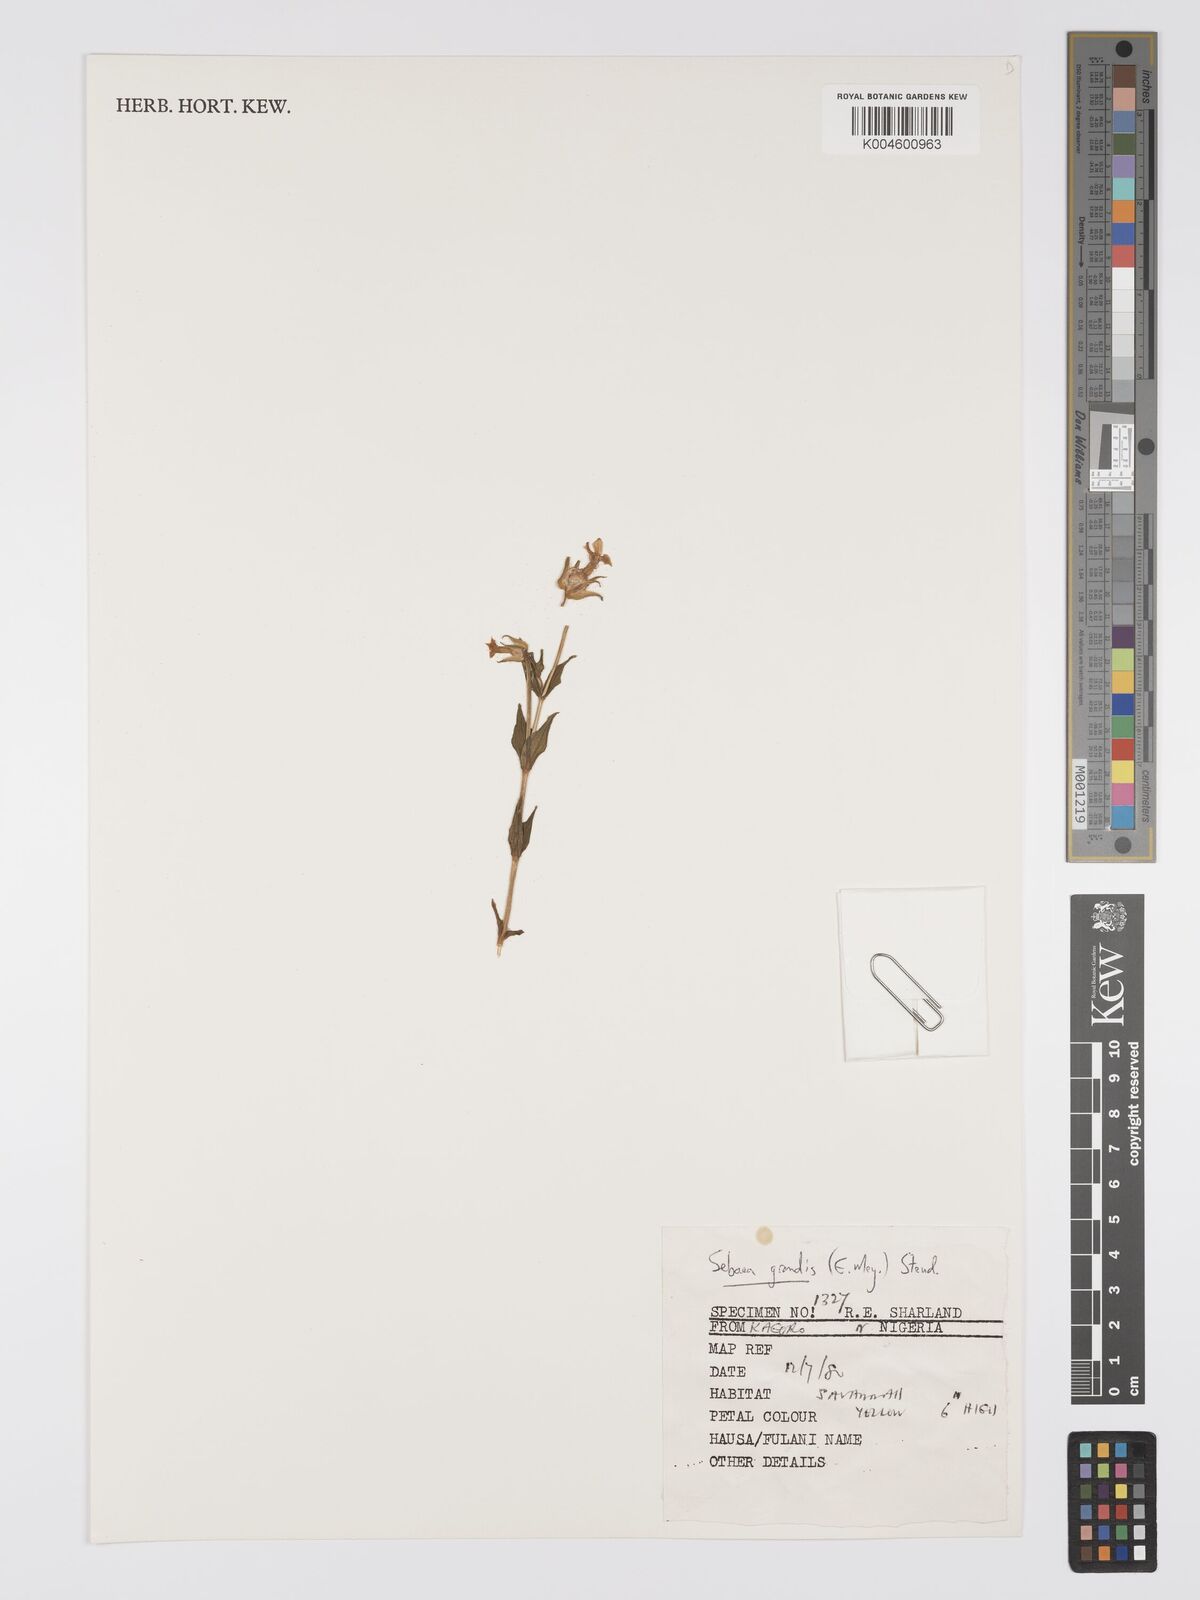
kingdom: Plantae
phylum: Tracheophyta
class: Magnoliopsida
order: Gentianales
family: Gentianaceae
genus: Exochaenium
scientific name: Exochaenium grande
